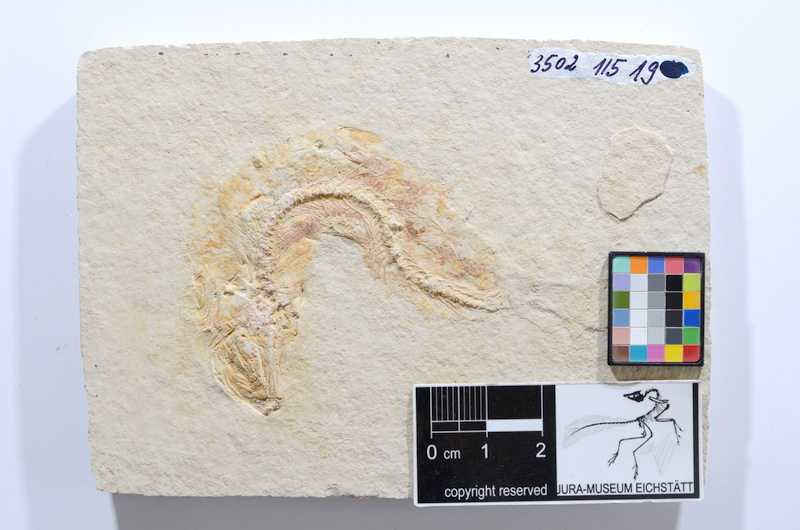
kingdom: Animalia
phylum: Chordata
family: Ascalaboidae
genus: Tharsis
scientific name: Tharsis dubius
